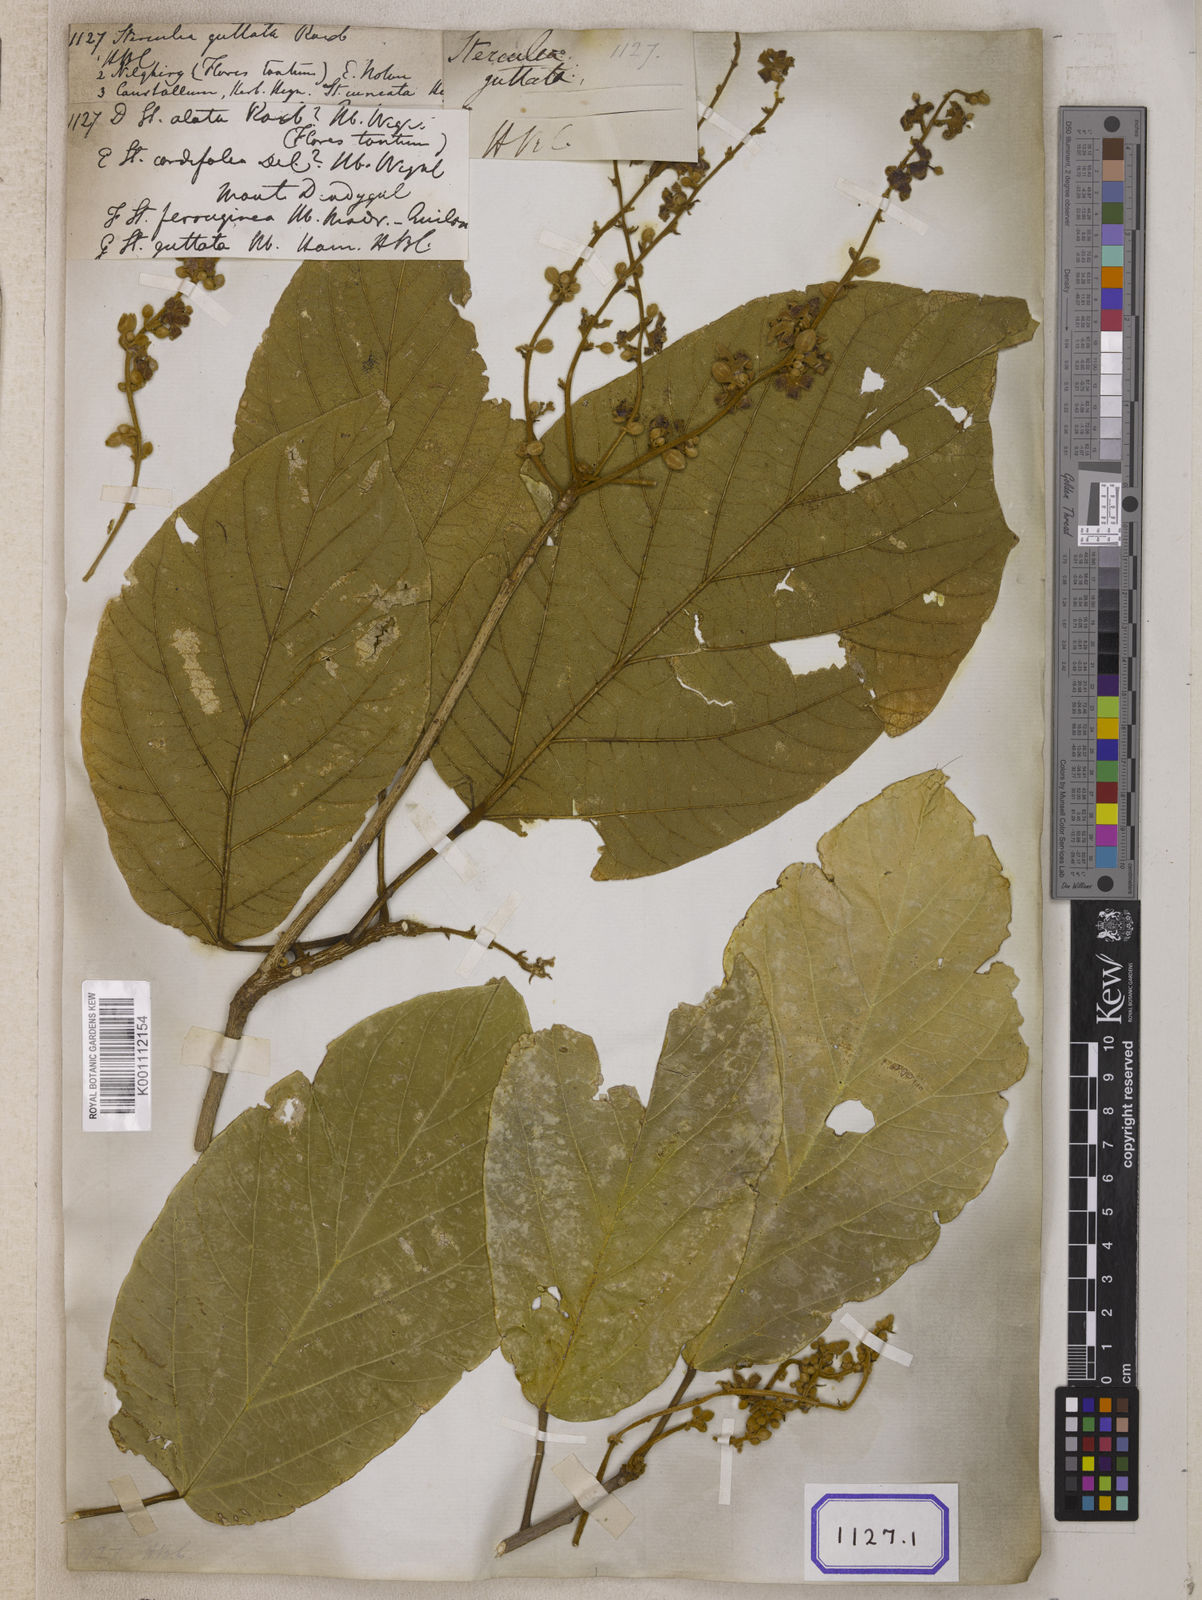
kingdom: Plantae
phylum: Tracheophyta
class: Magnoliopsida
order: Malvales
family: Malvaceae
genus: Sterculia
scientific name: Sterculia guttata
